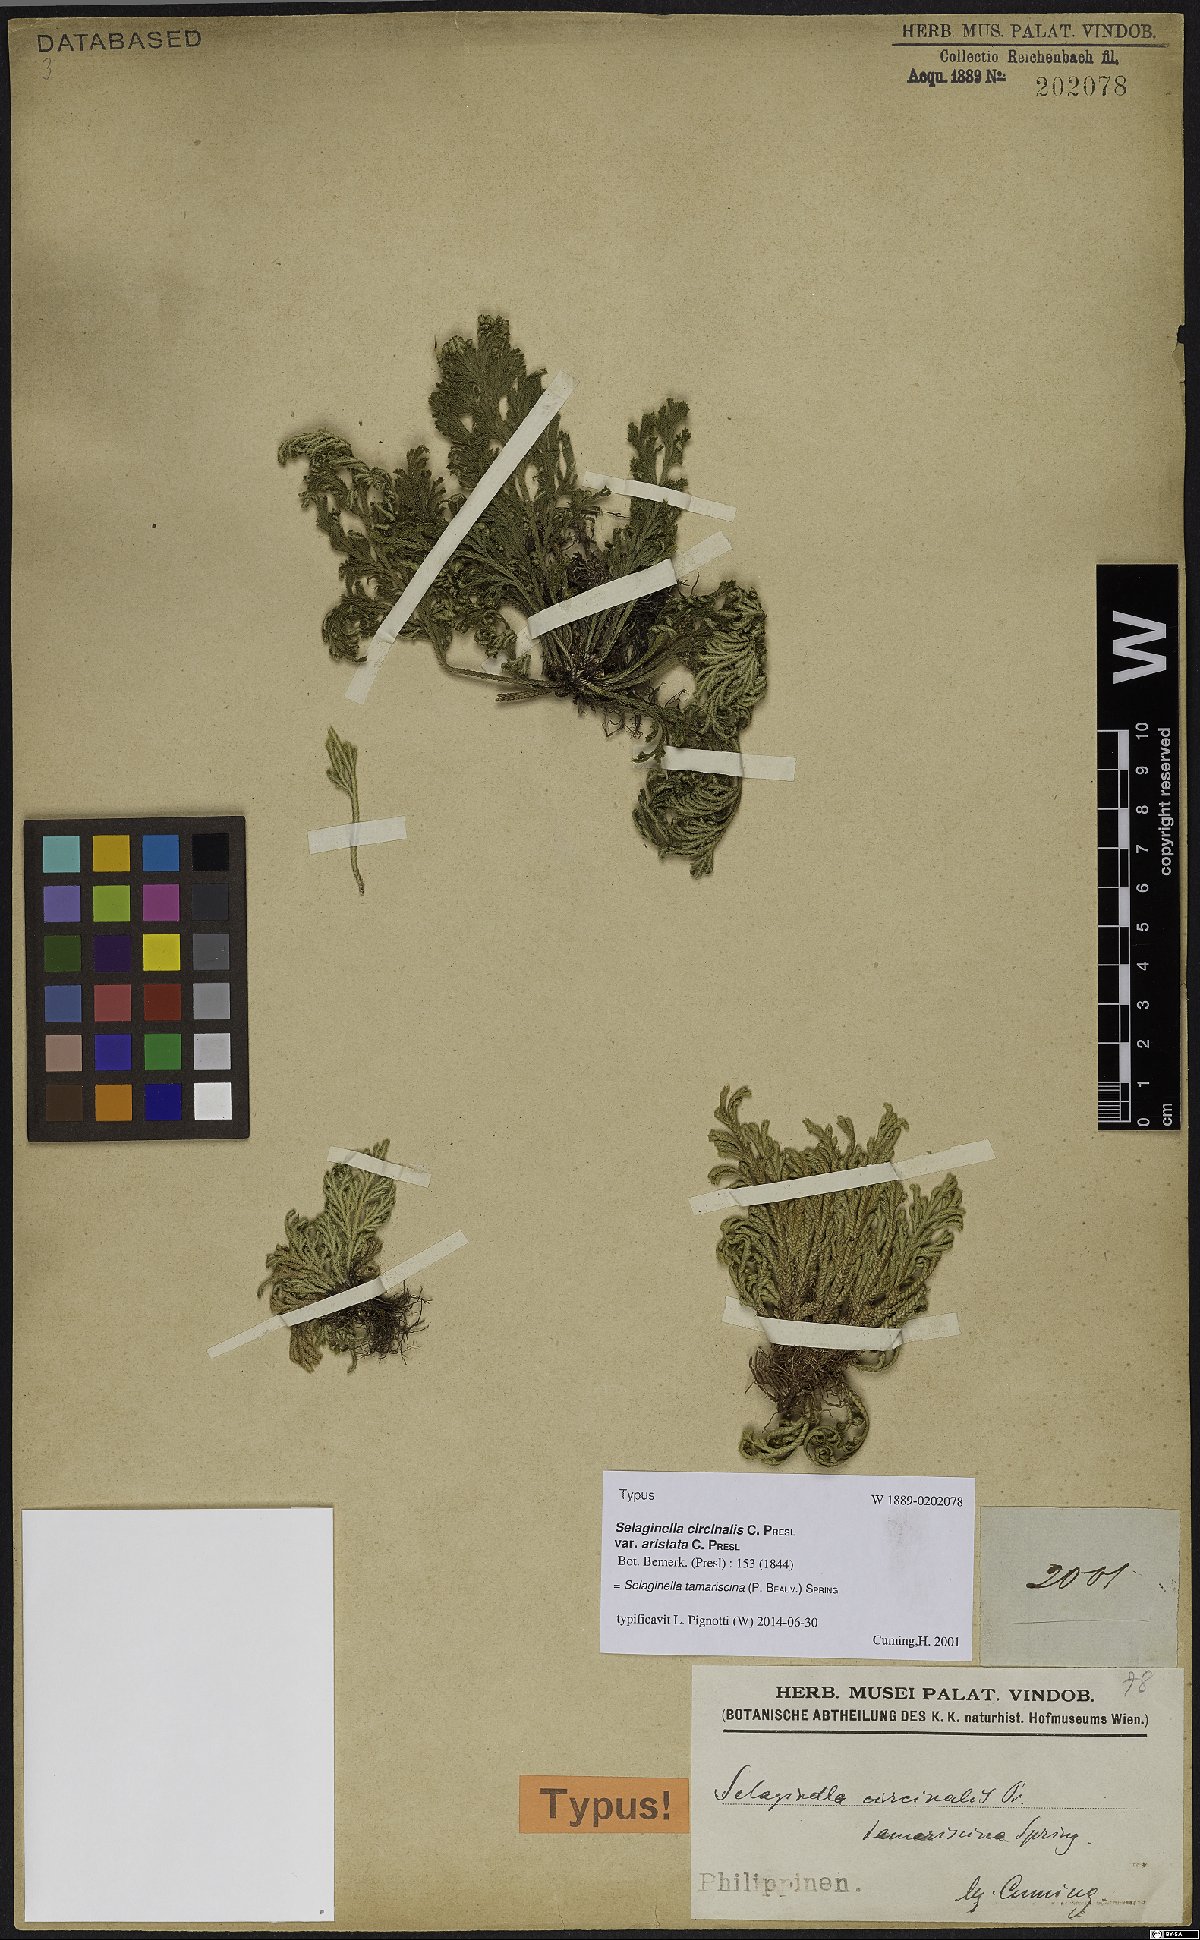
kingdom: Plantae
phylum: Tracheophyta
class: Lycopodiopsida
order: Selaginellales
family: Selaginellaceae
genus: Selaginella
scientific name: Selaginella tamariscina
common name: Little-club-moss
